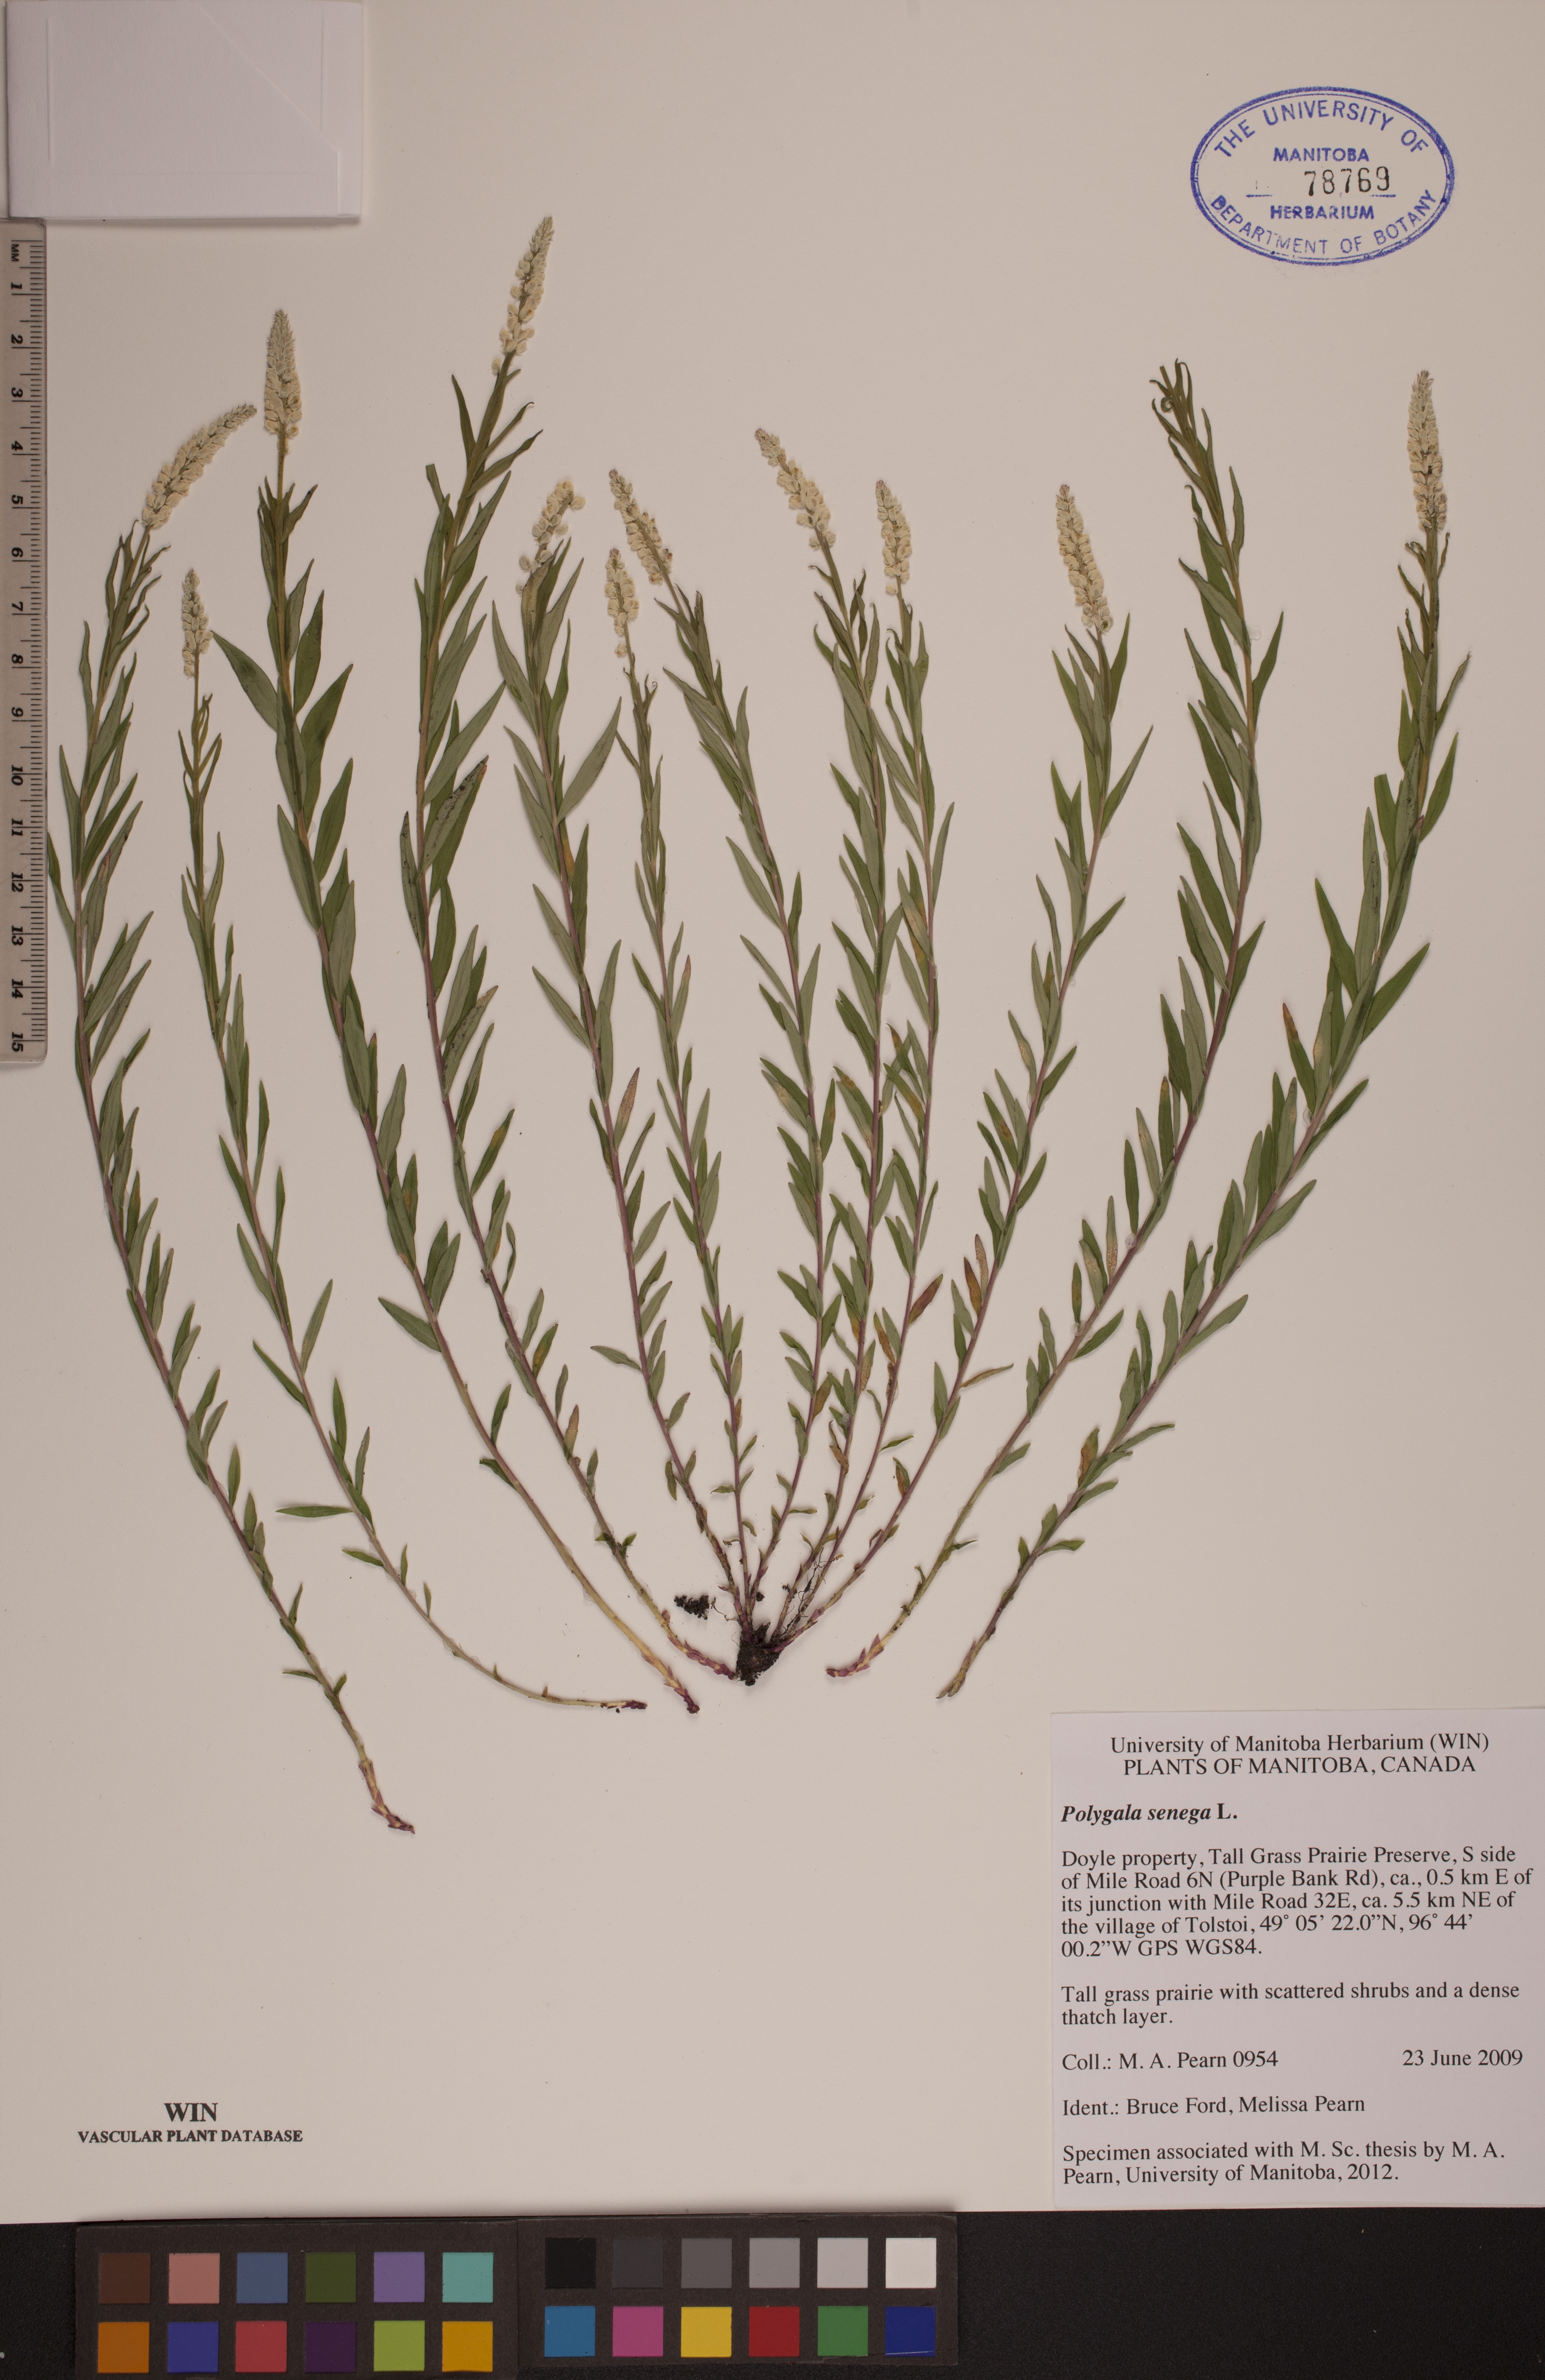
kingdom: Plantae
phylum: Tracheophyta
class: Magnoliopsida
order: Fabales
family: Polygalaceae
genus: Polygala
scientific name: Polygala senega
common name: Seneca snakeroot
